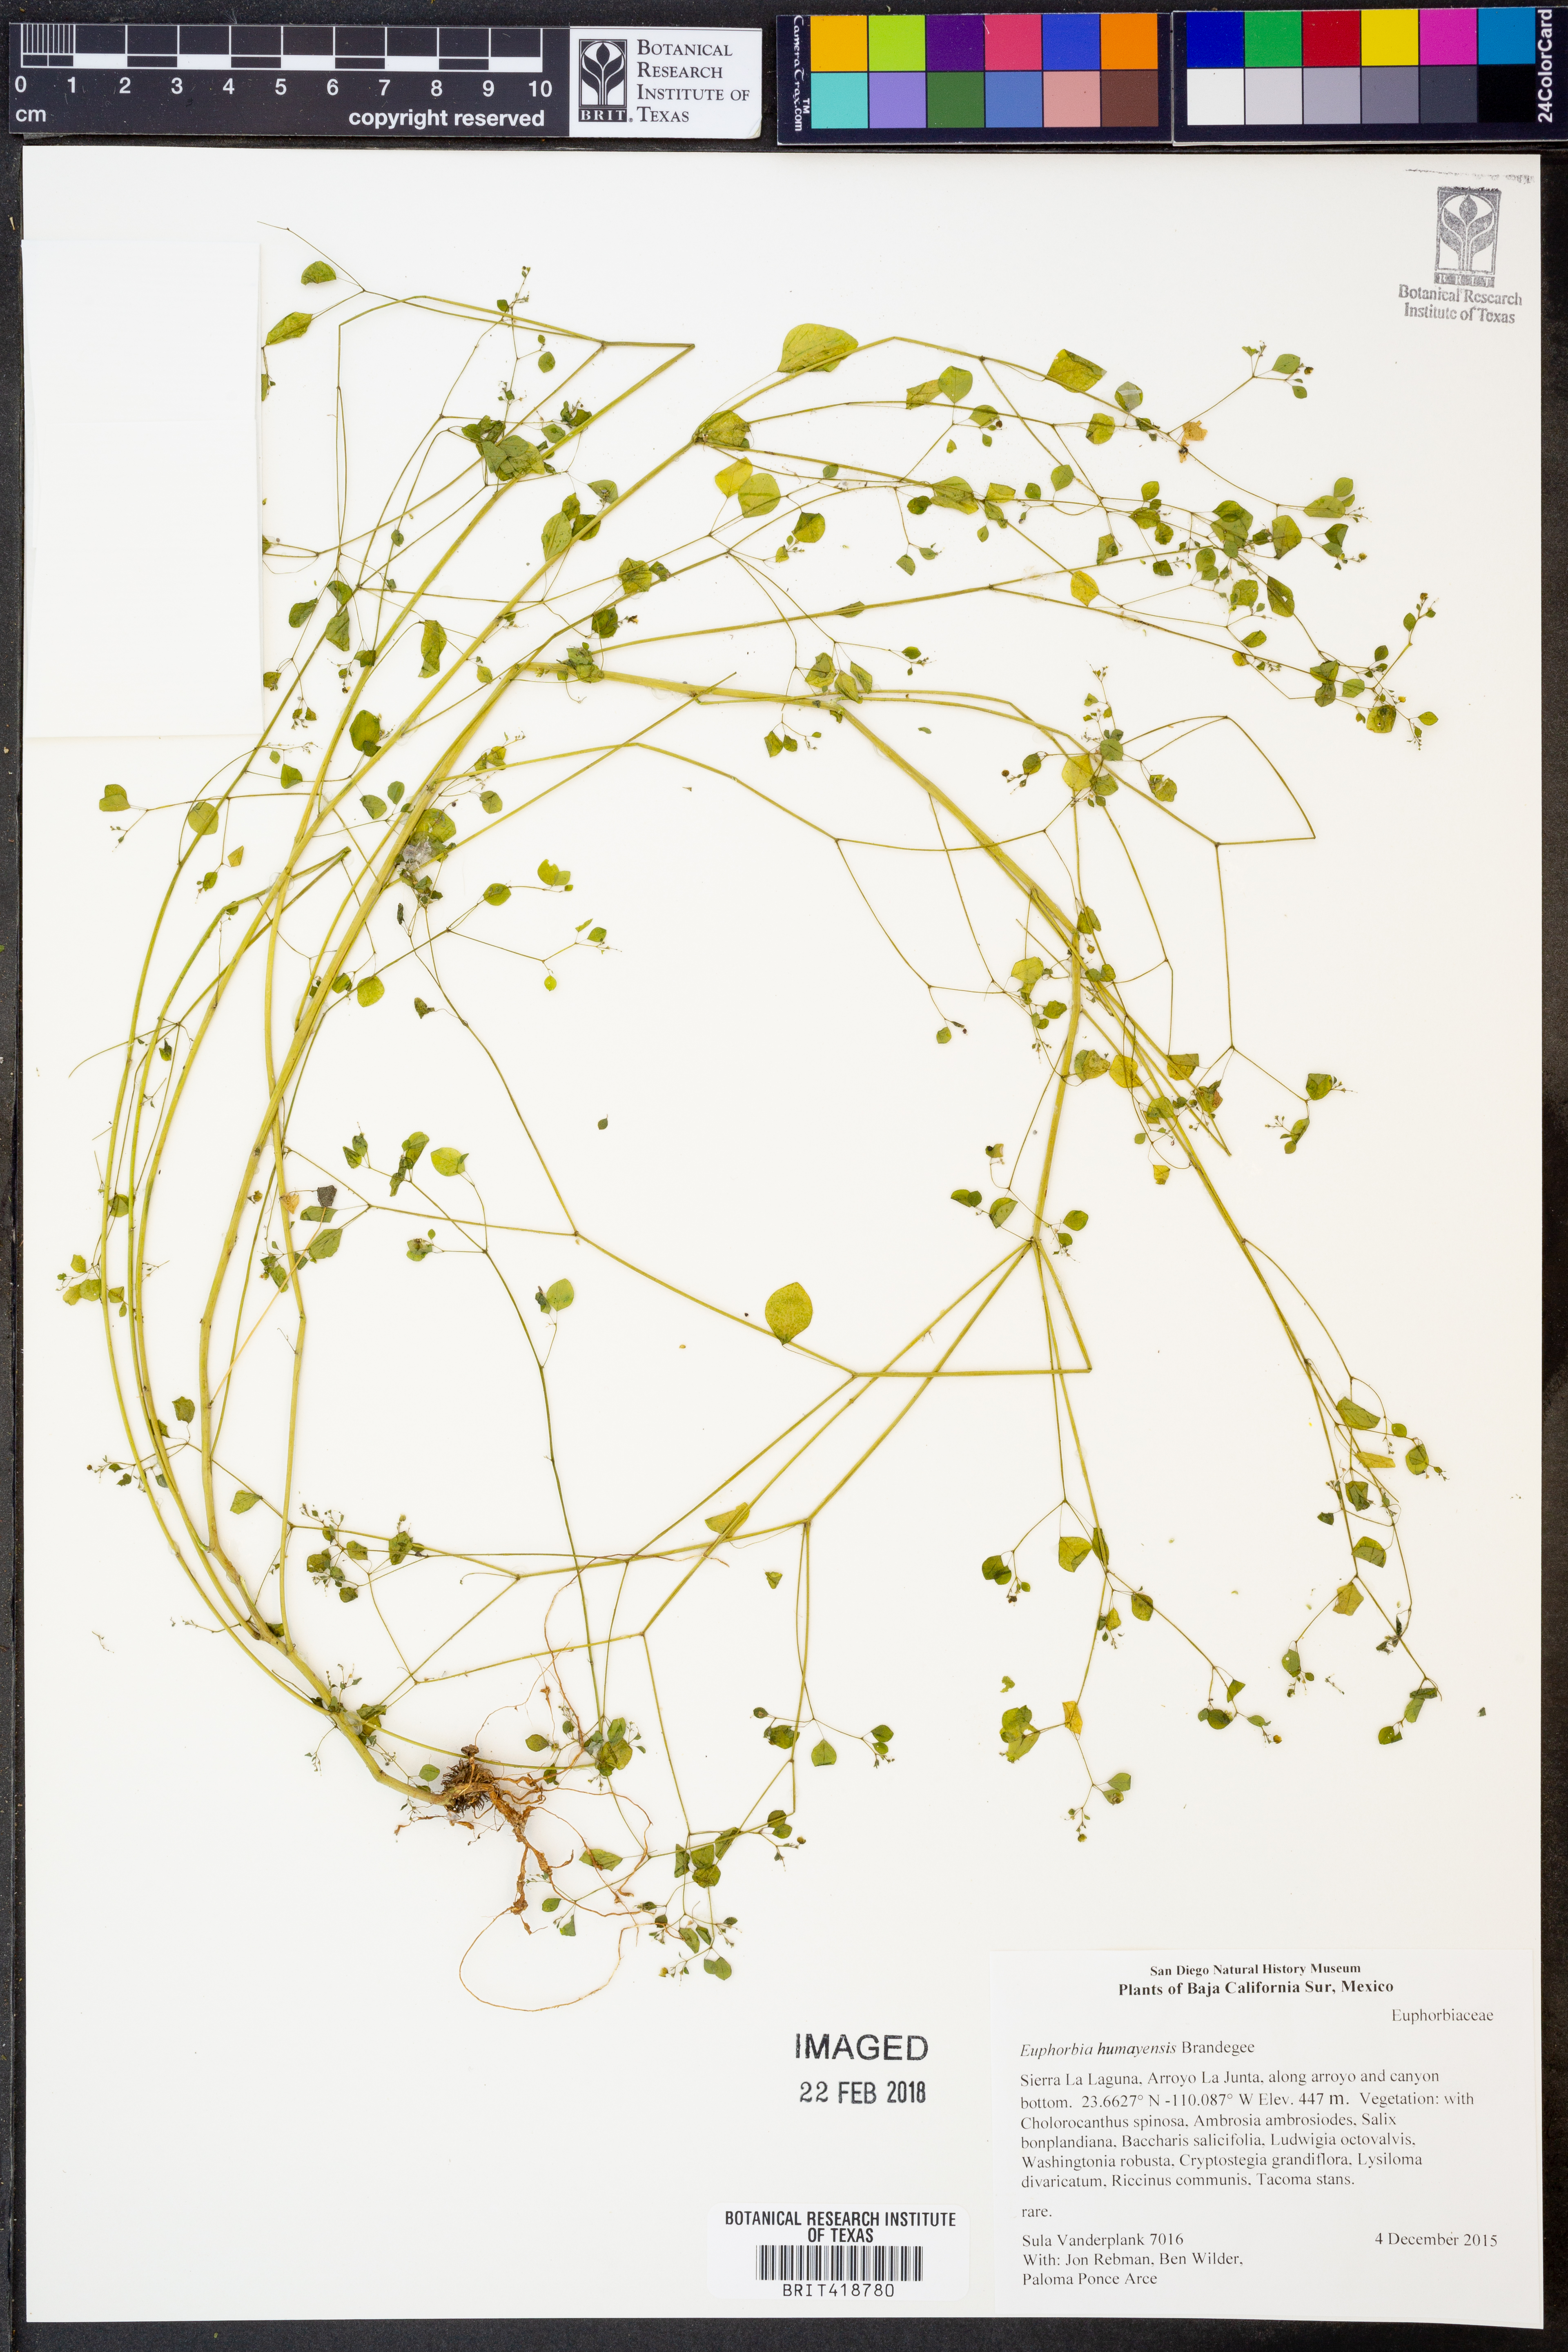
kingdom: Plantae
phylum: Tracheophyta
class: Magnoliopsida
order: Malpighiales
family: Euphorbiaceae
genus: Euphorbia
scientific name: Euphorbia humayensis
